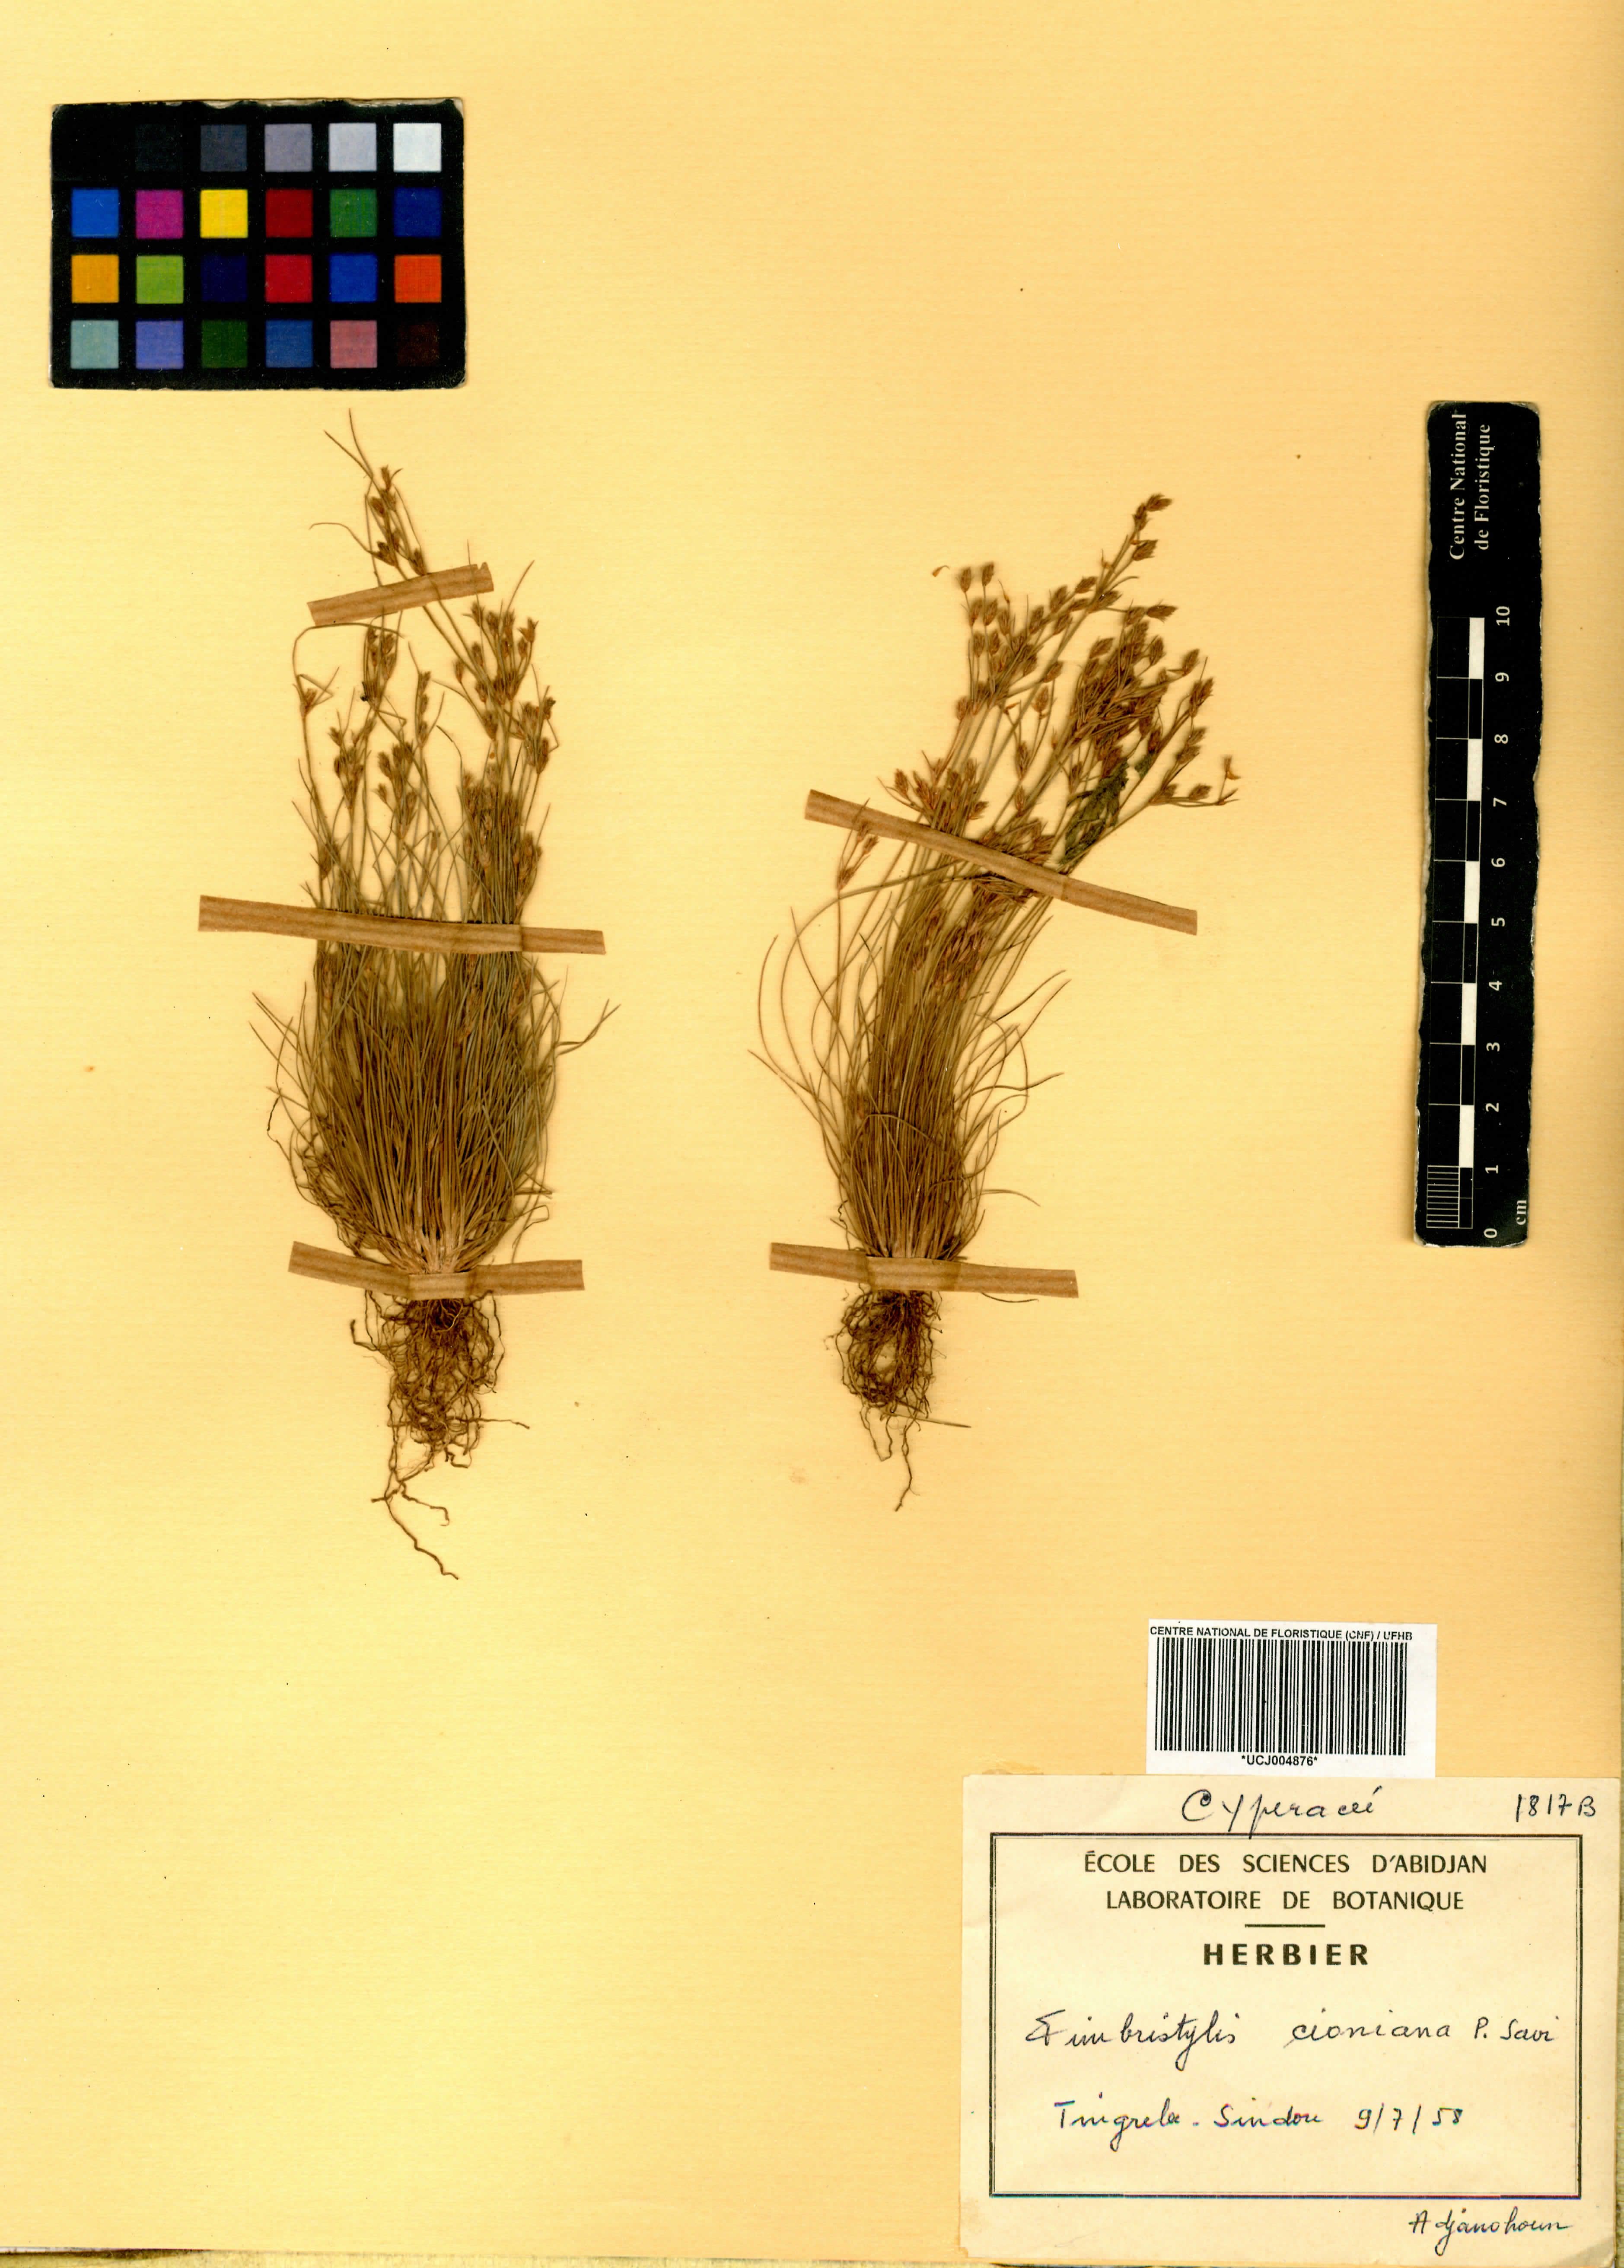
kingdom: Plantae
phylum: Tracheophyta
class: Liliopsida
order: Poales
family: Cyperaceae
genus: Bulbostylis
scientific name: Bulbostylis cioniana
